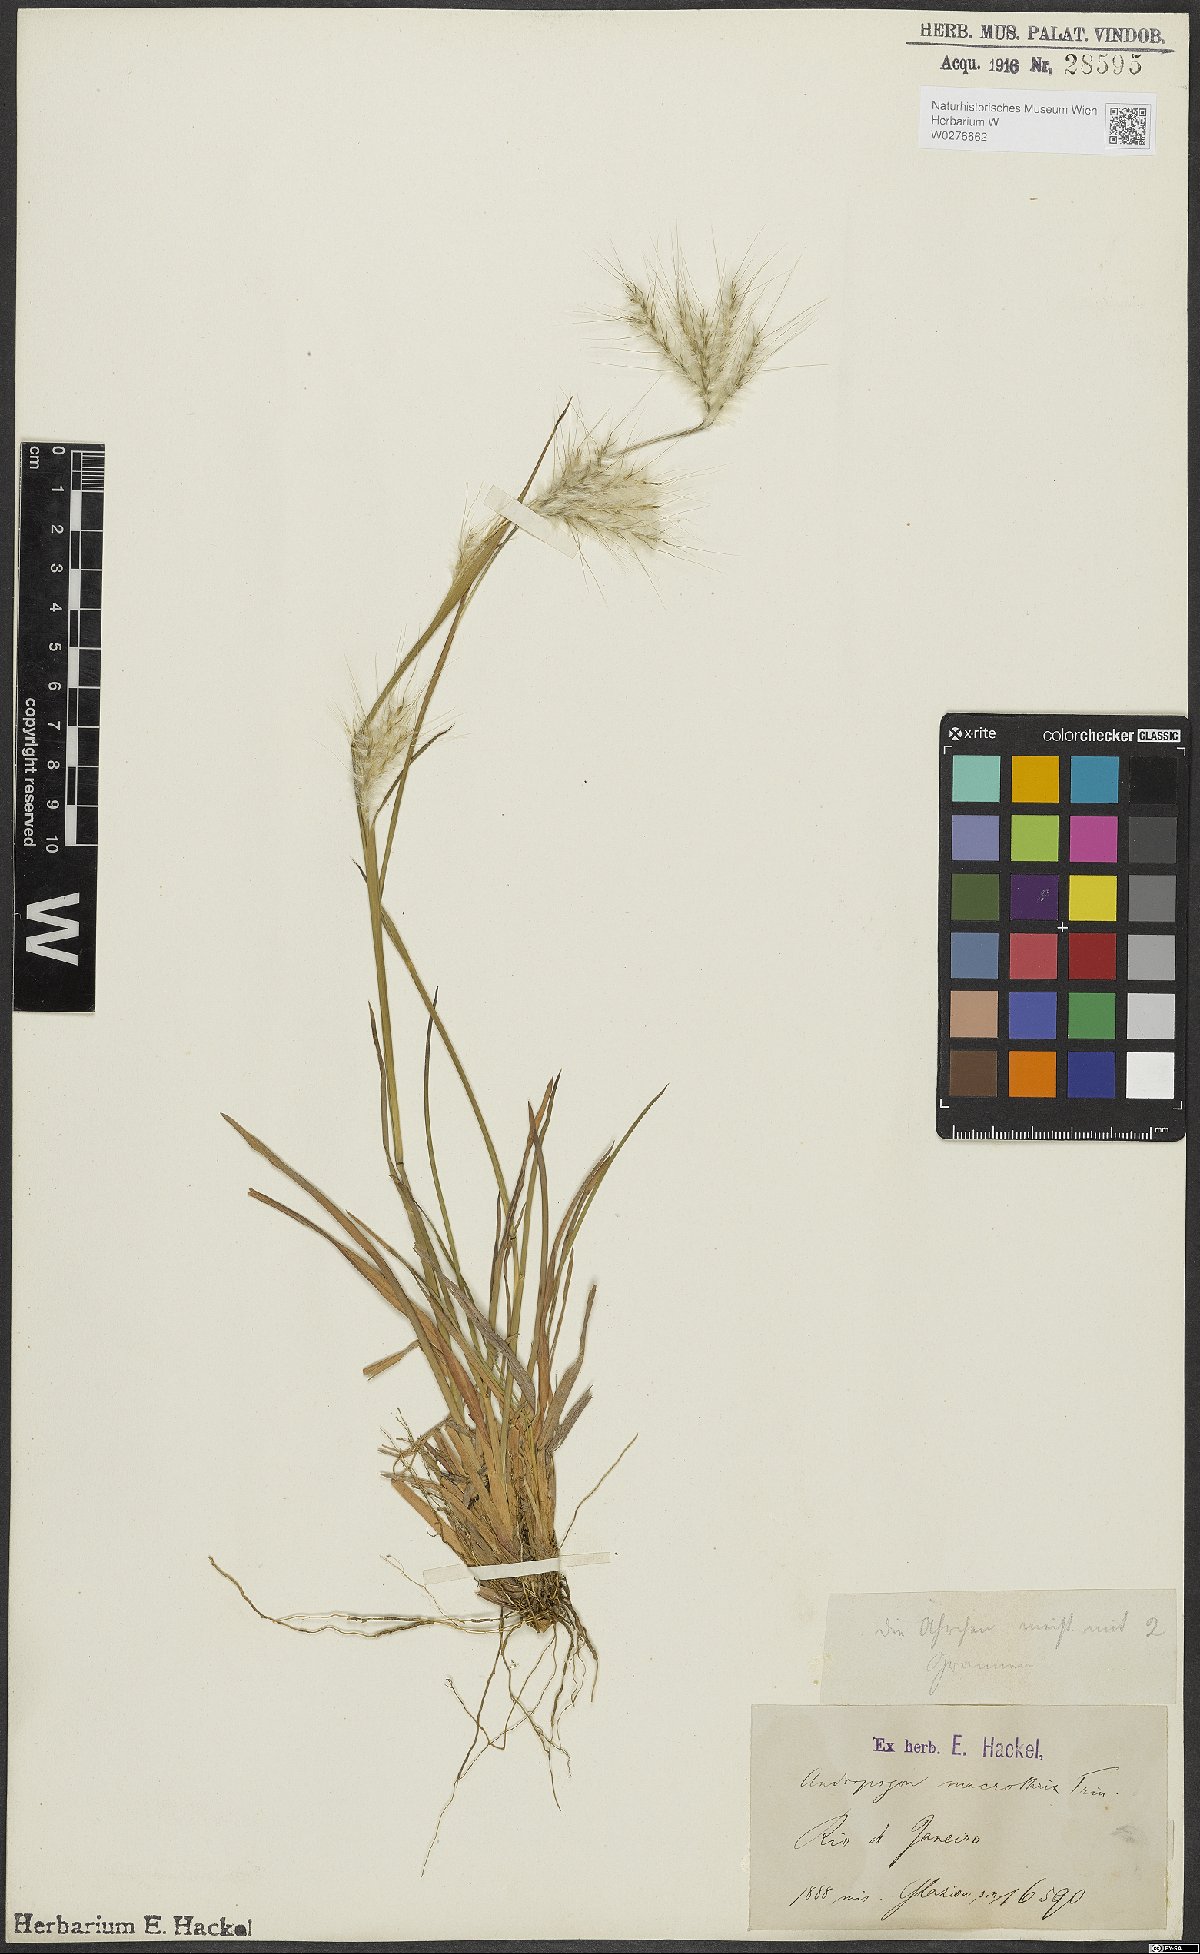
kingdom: Plantae
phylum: Tracheophyta
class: Liliopsida
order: Poales
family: Poaceae
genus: Andropogon
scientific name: Andropogon macrothrix
